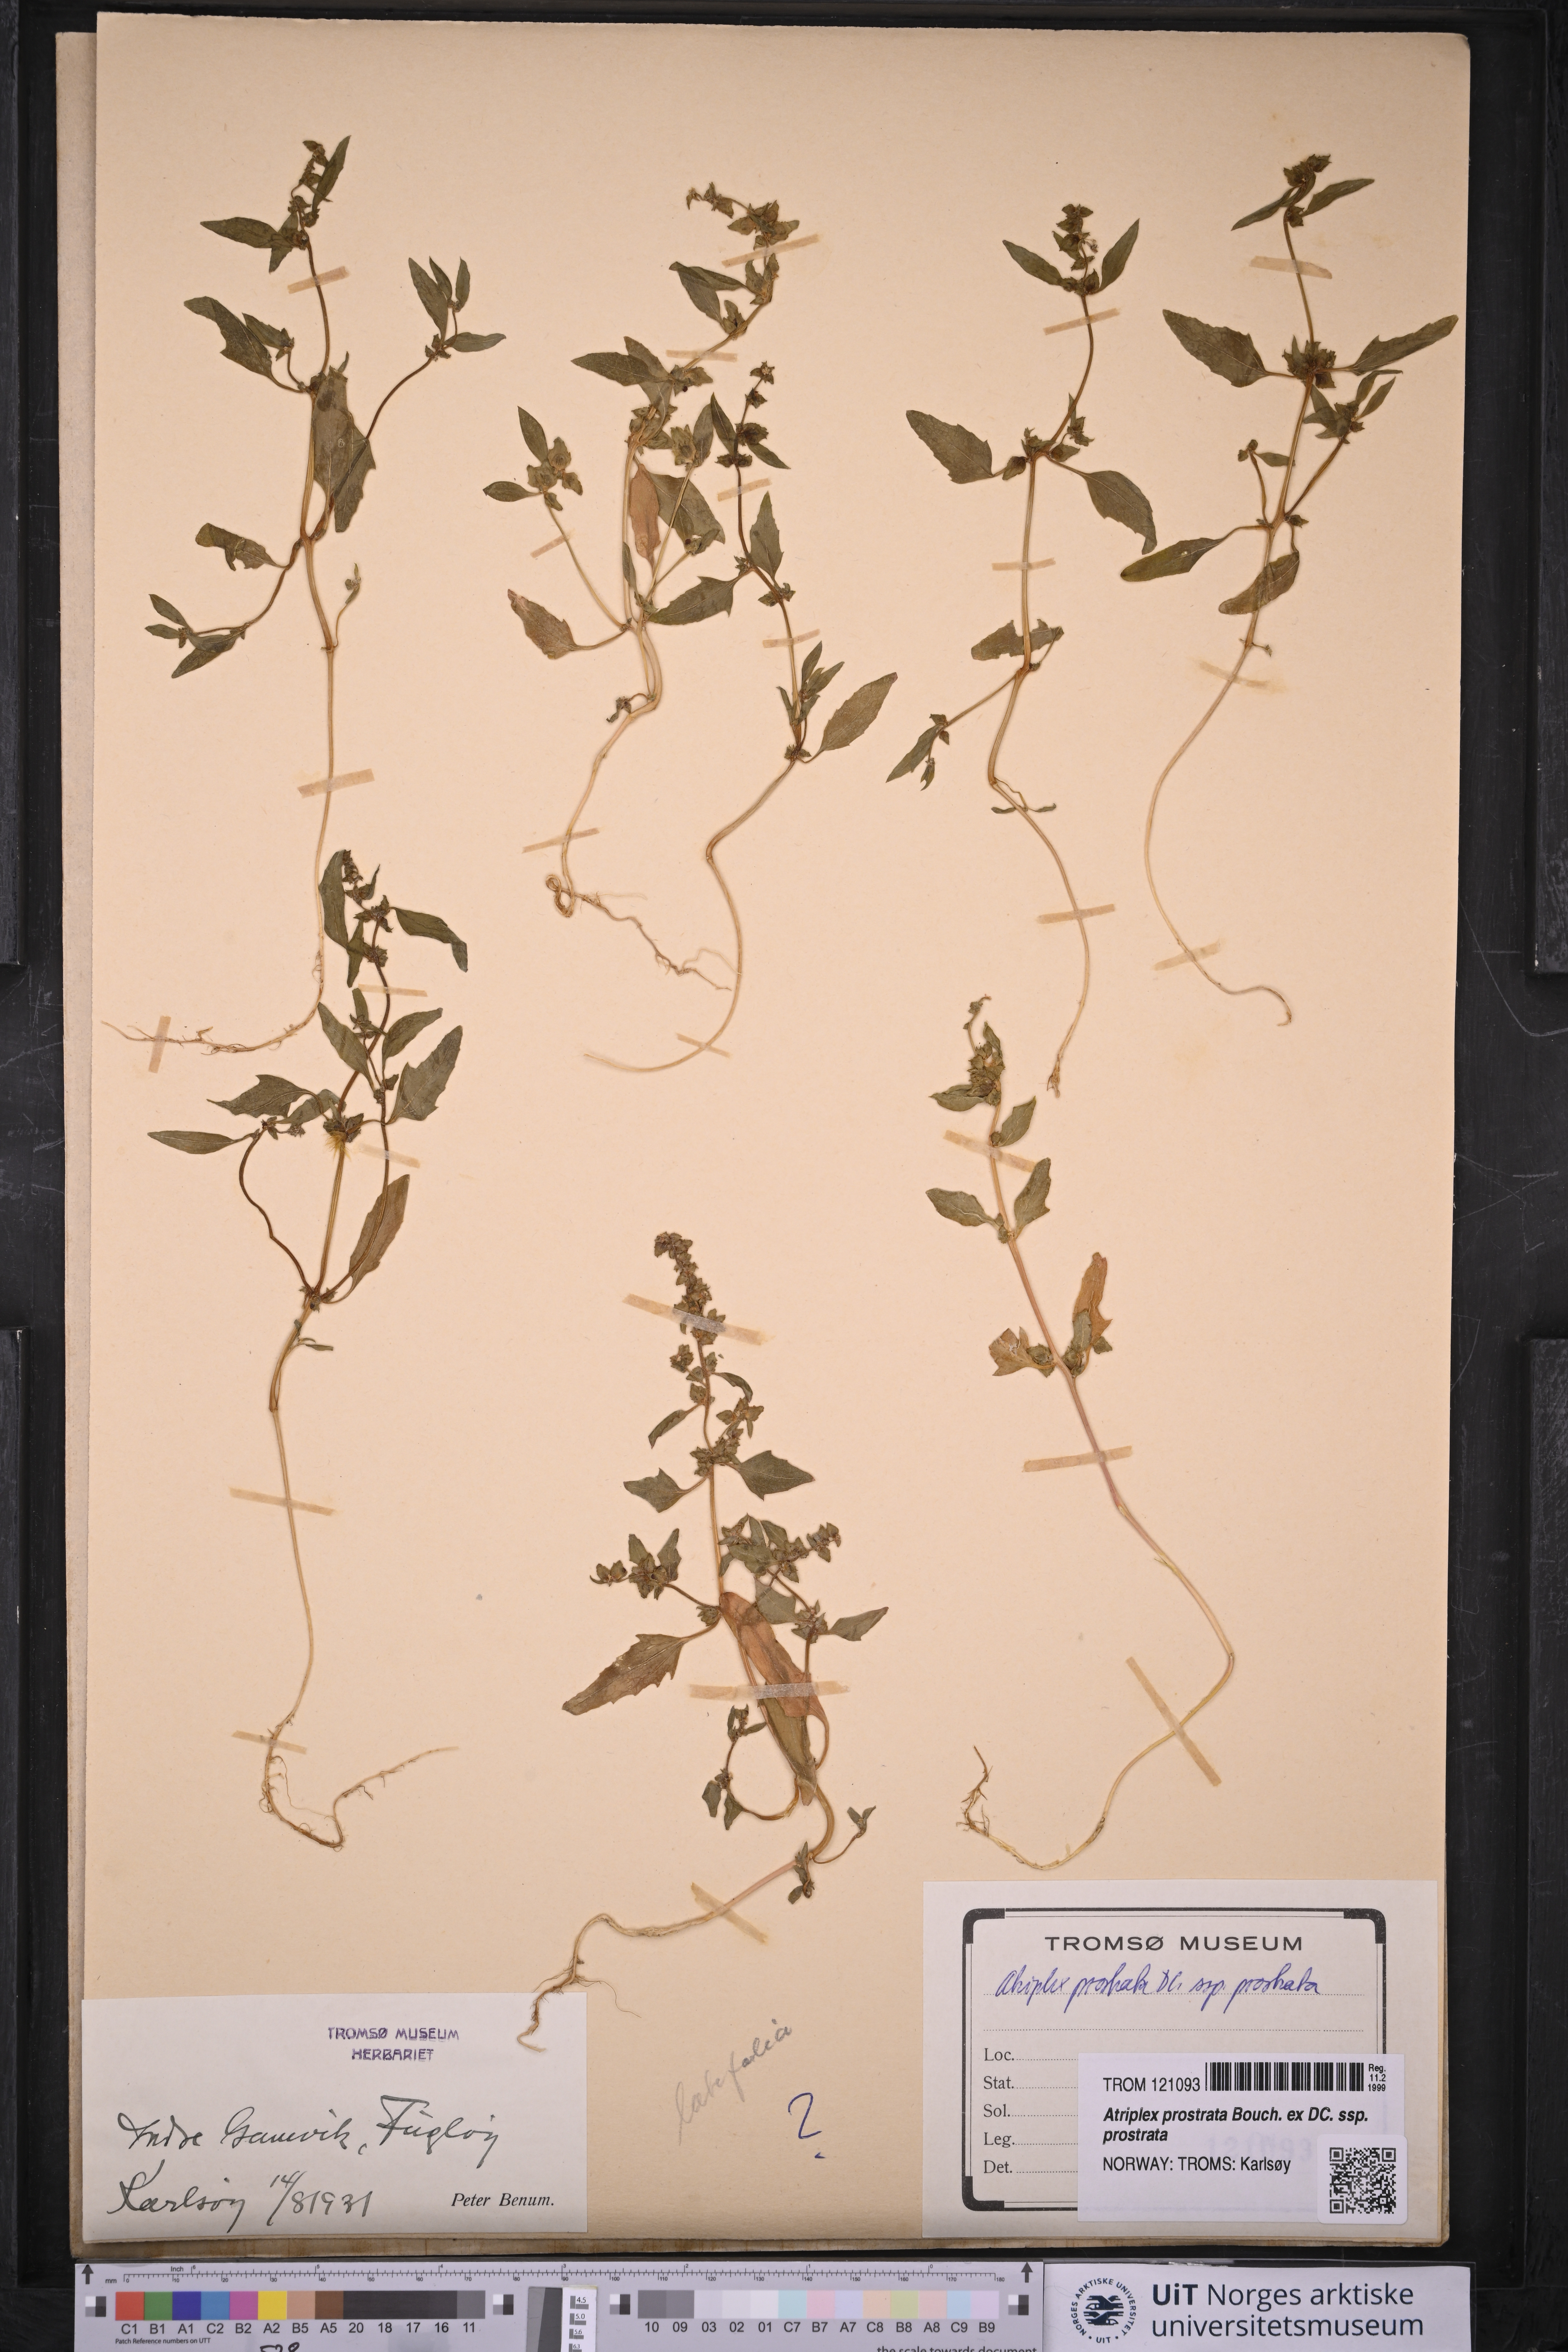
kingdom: Plantae
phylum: Tracheophyta
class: Magnoliopsida
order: Caryophyllales
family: Amaranthaceae
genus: Atriplex
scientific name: Atriplex prostrata
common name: Spear-leaved orache
